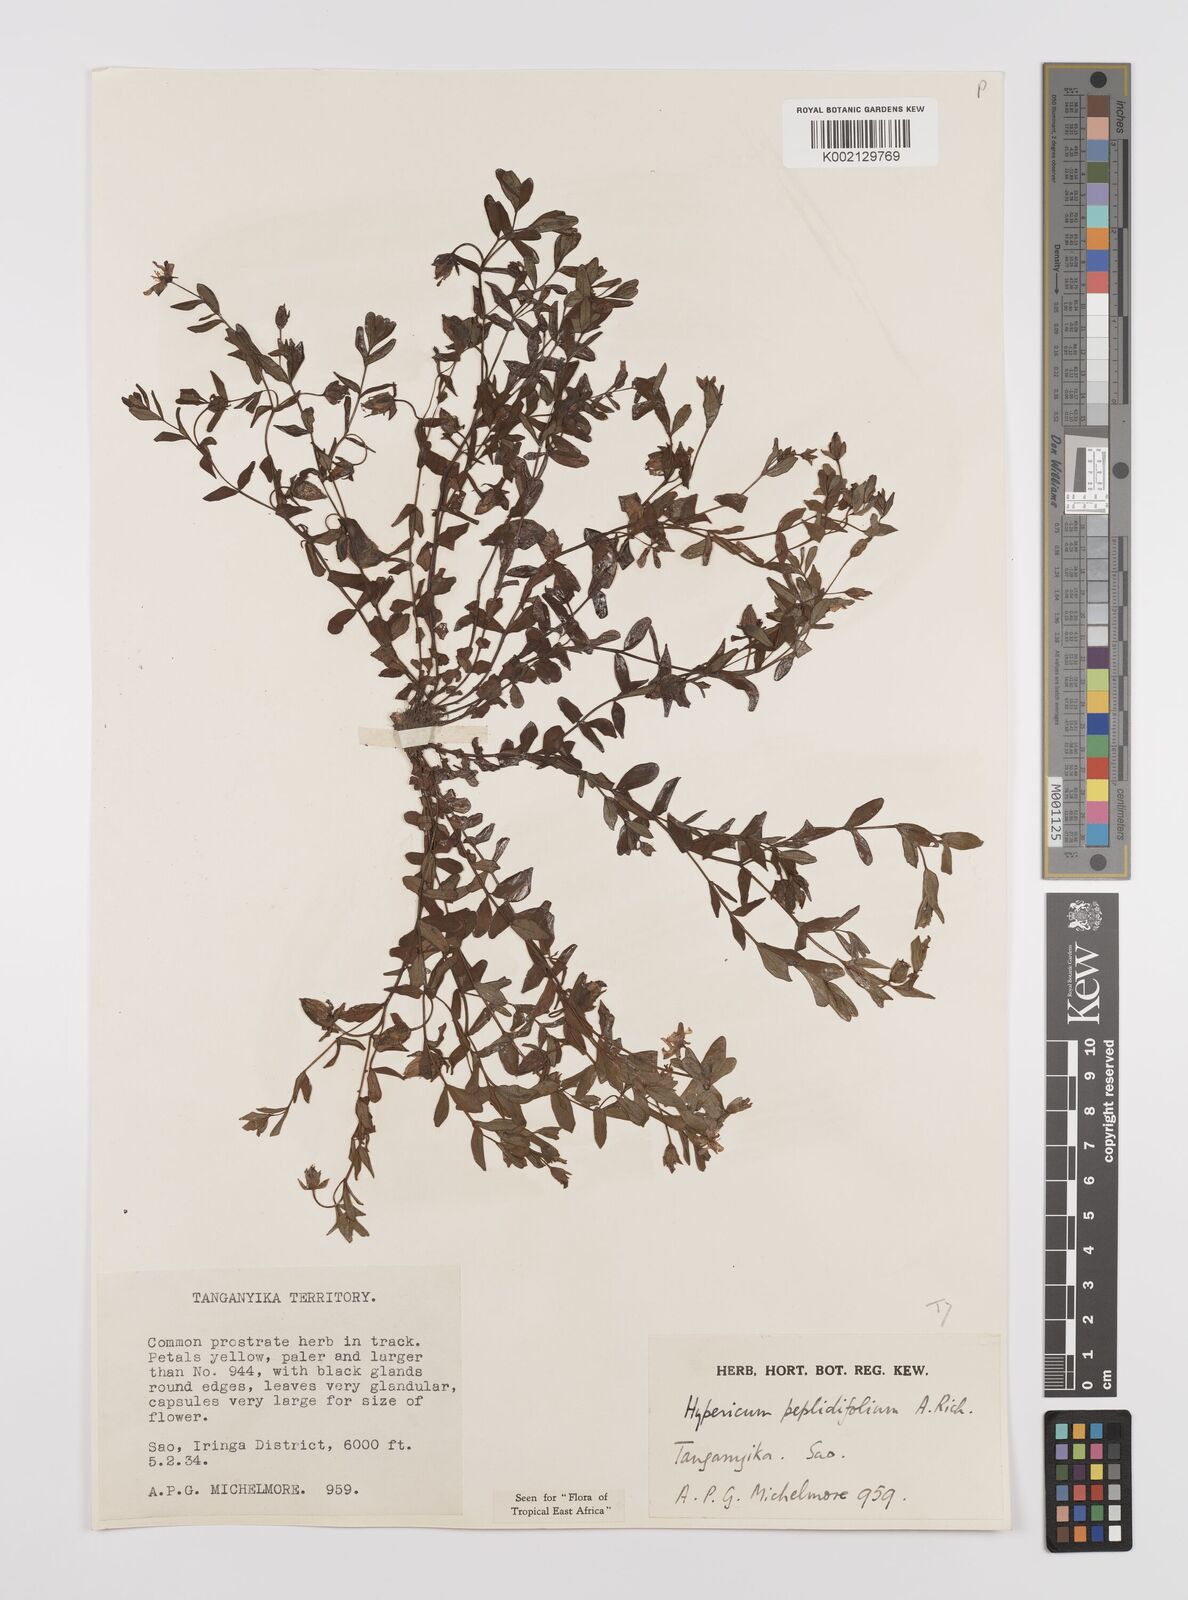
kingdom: Plantae
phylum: Tracheophyta
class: Magnoliopsida
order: Malpighiales
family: Hypericaceae
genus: Hypericum
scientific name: Hypericum peplidifolium
